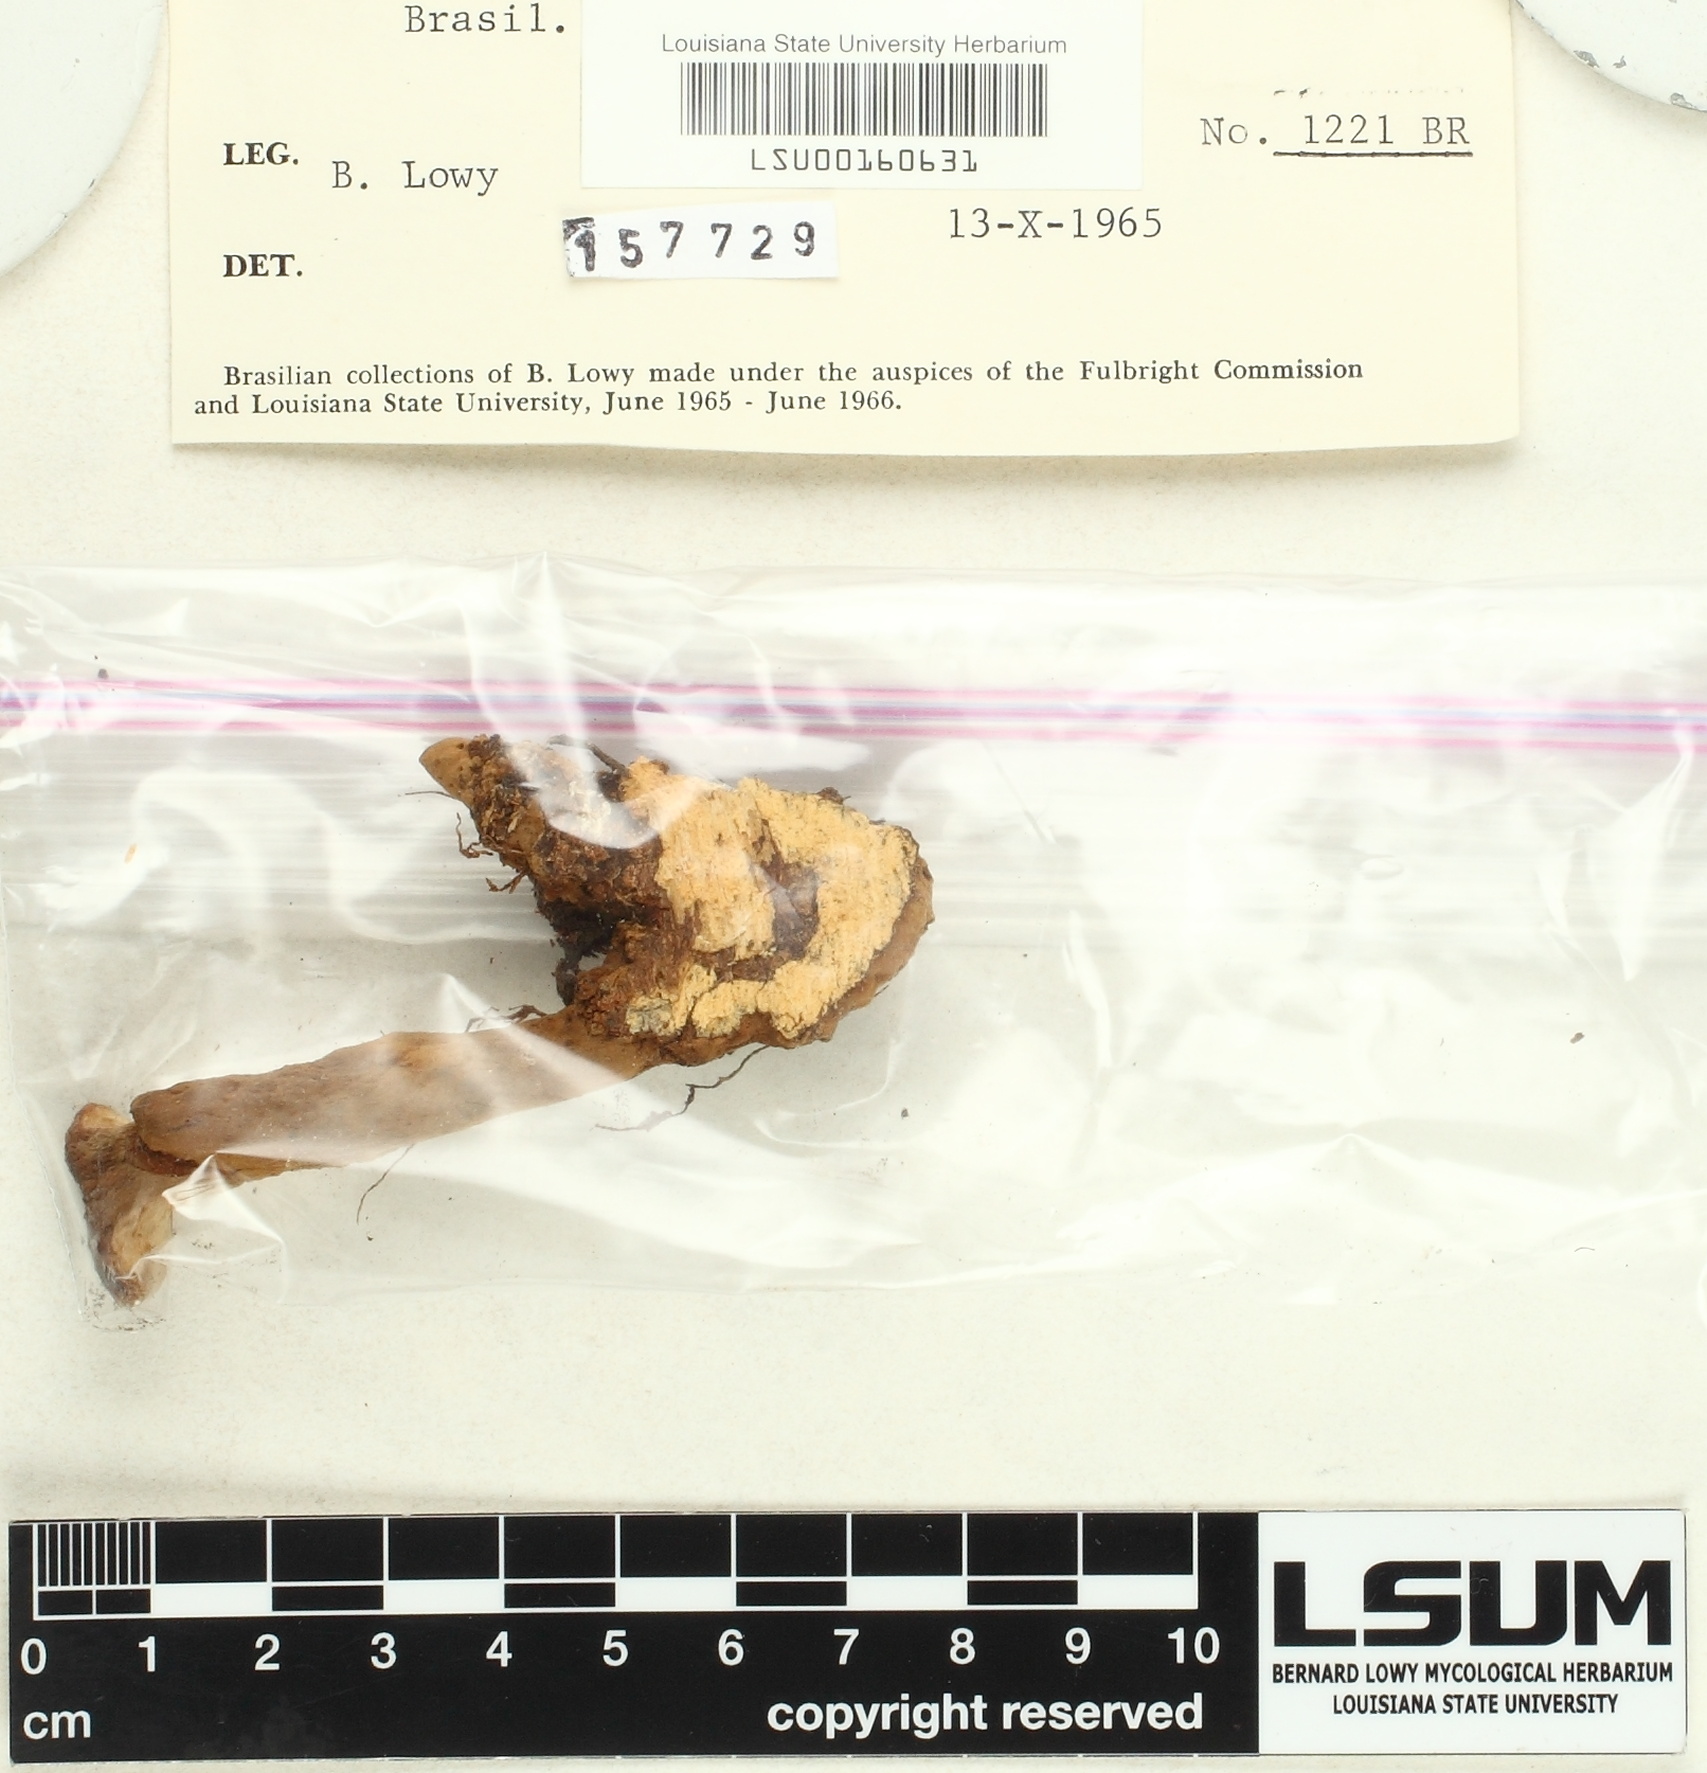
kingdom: Fungi
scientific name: Fungi
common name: Fungi
